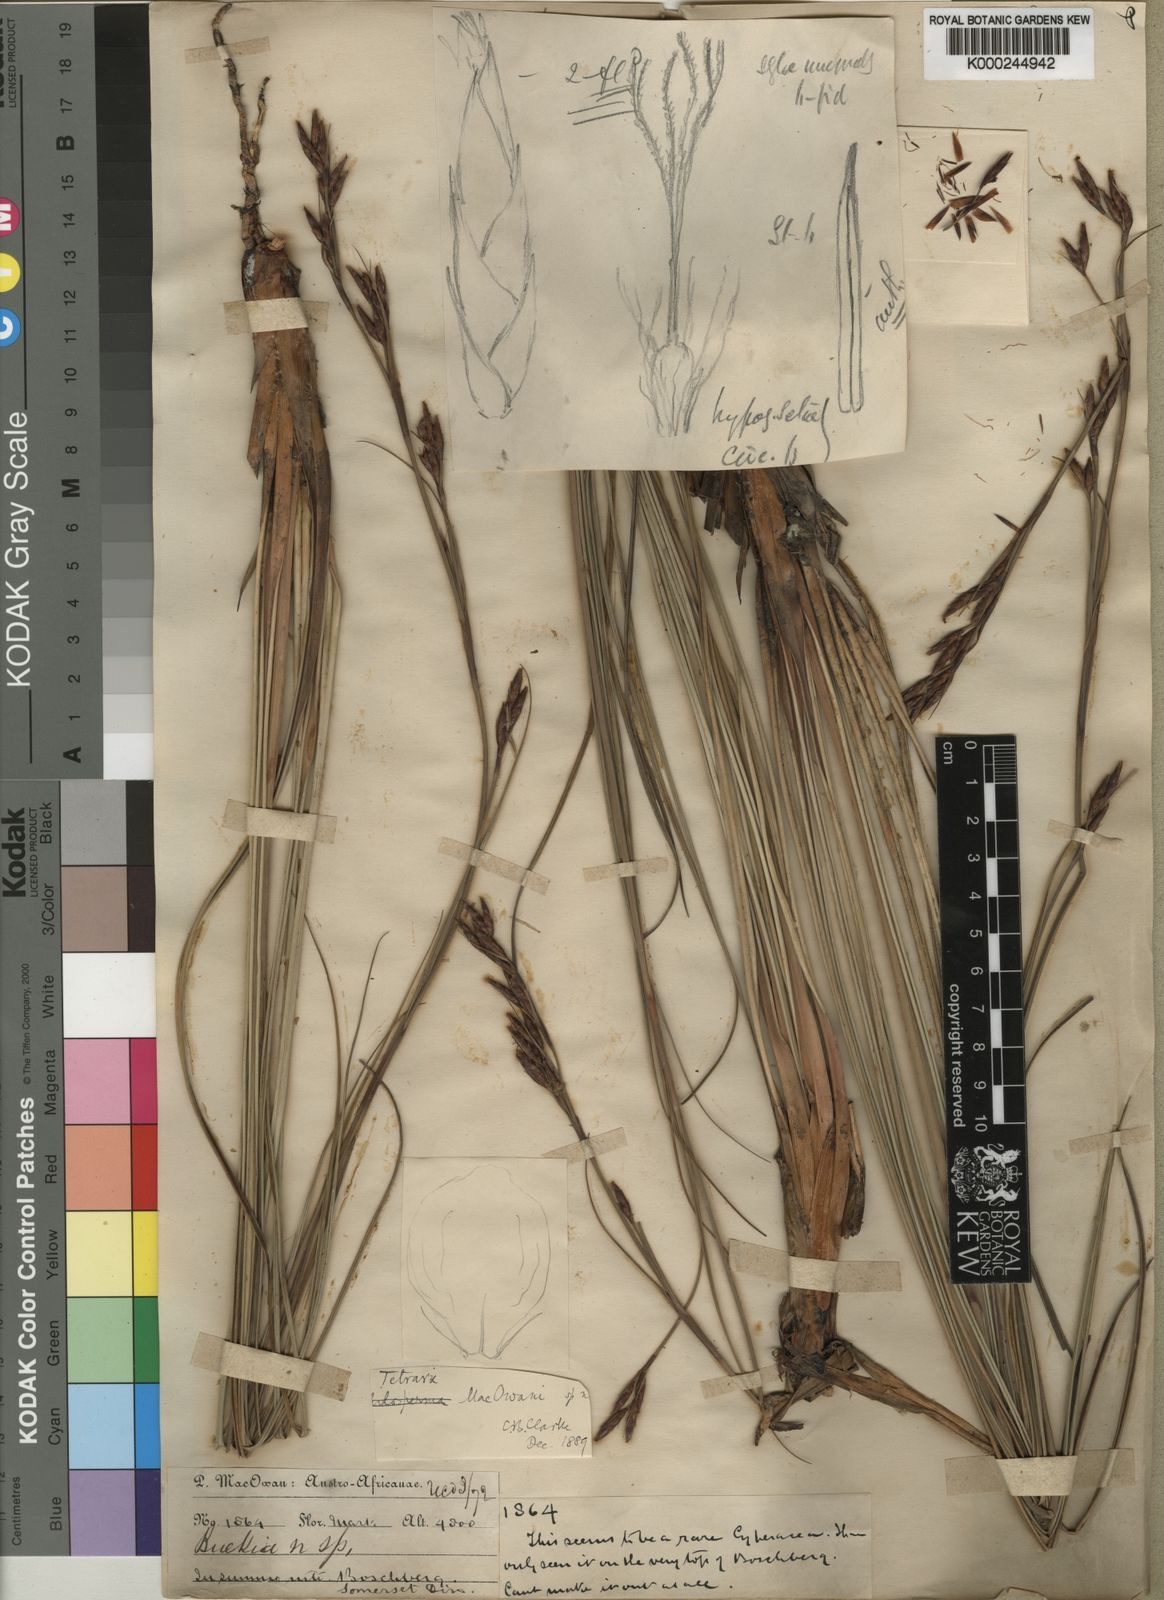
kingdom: Plantae
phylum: Tracheophyta
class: Liliopsida
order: Poales
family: Cyperaceae
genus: Tetraria
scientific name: Tetraria macowaniana
